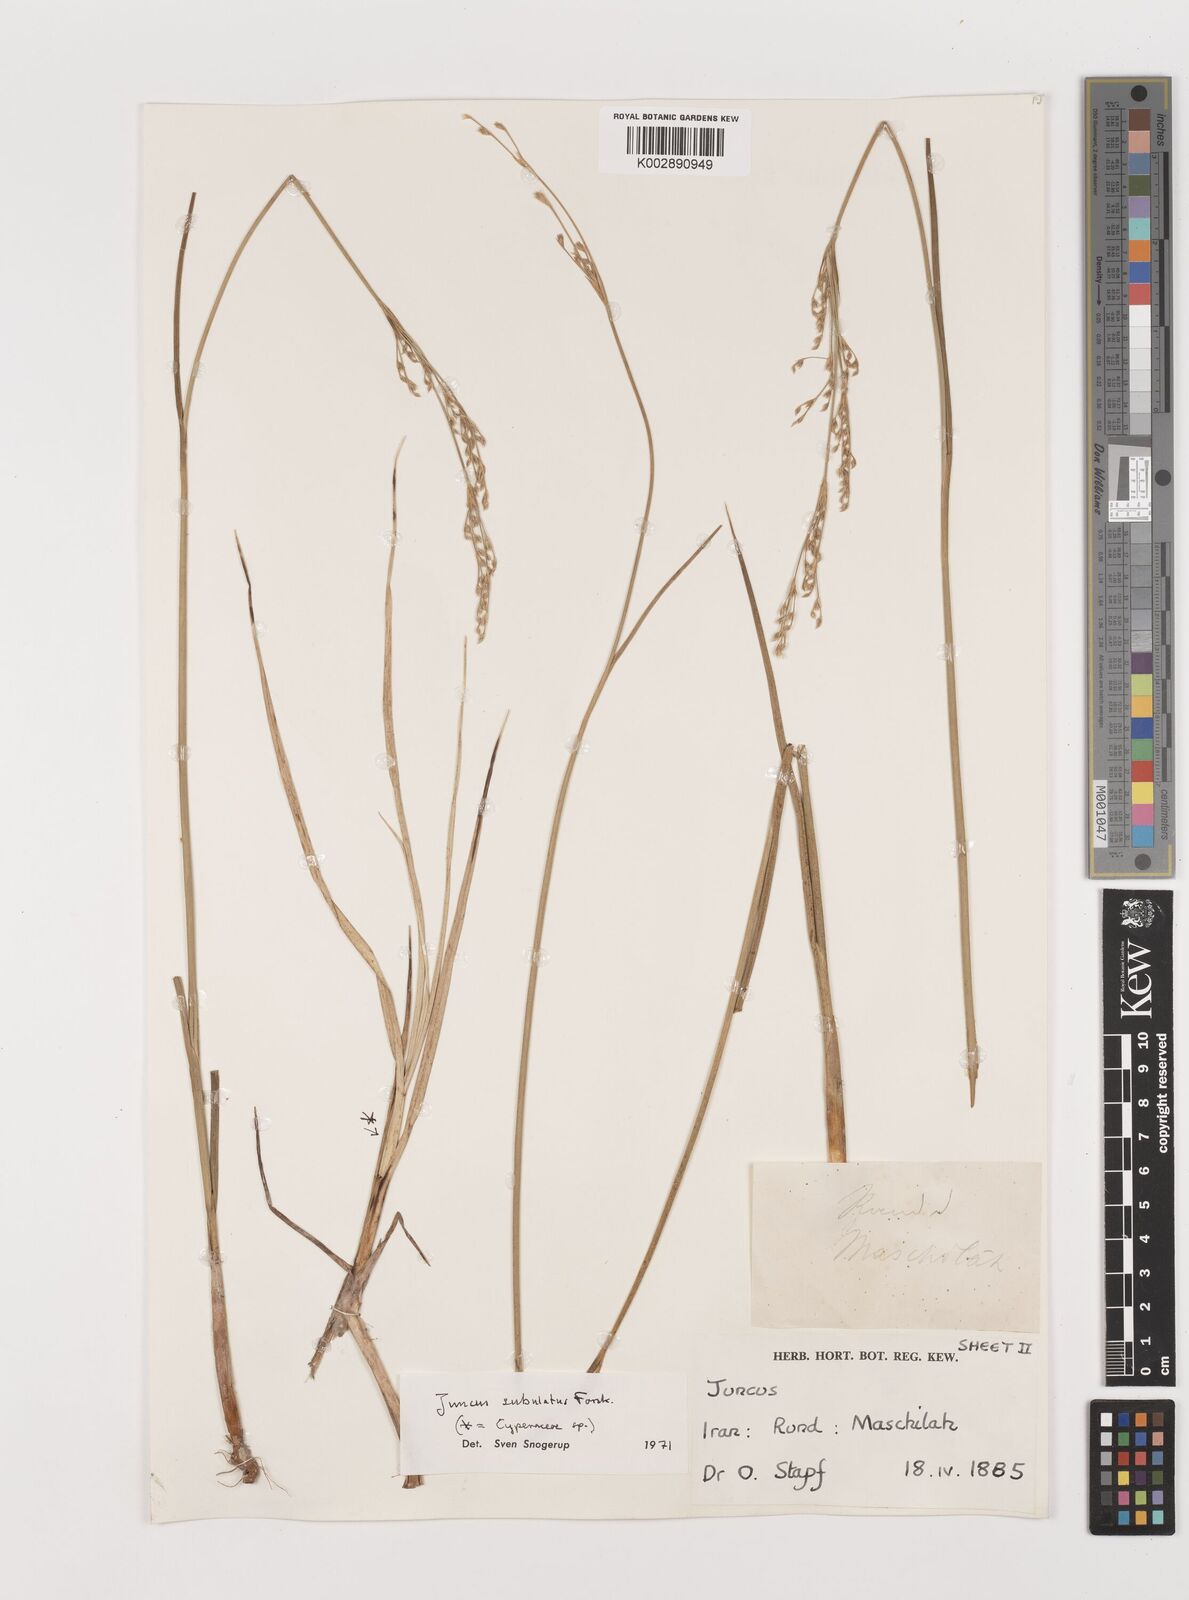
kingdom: Plantae
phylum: Tracheophyta
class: Liliopsida
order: Poales
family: Juncaceae
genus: Juncus
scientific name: Juncus subulatus
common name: Somerset rush
